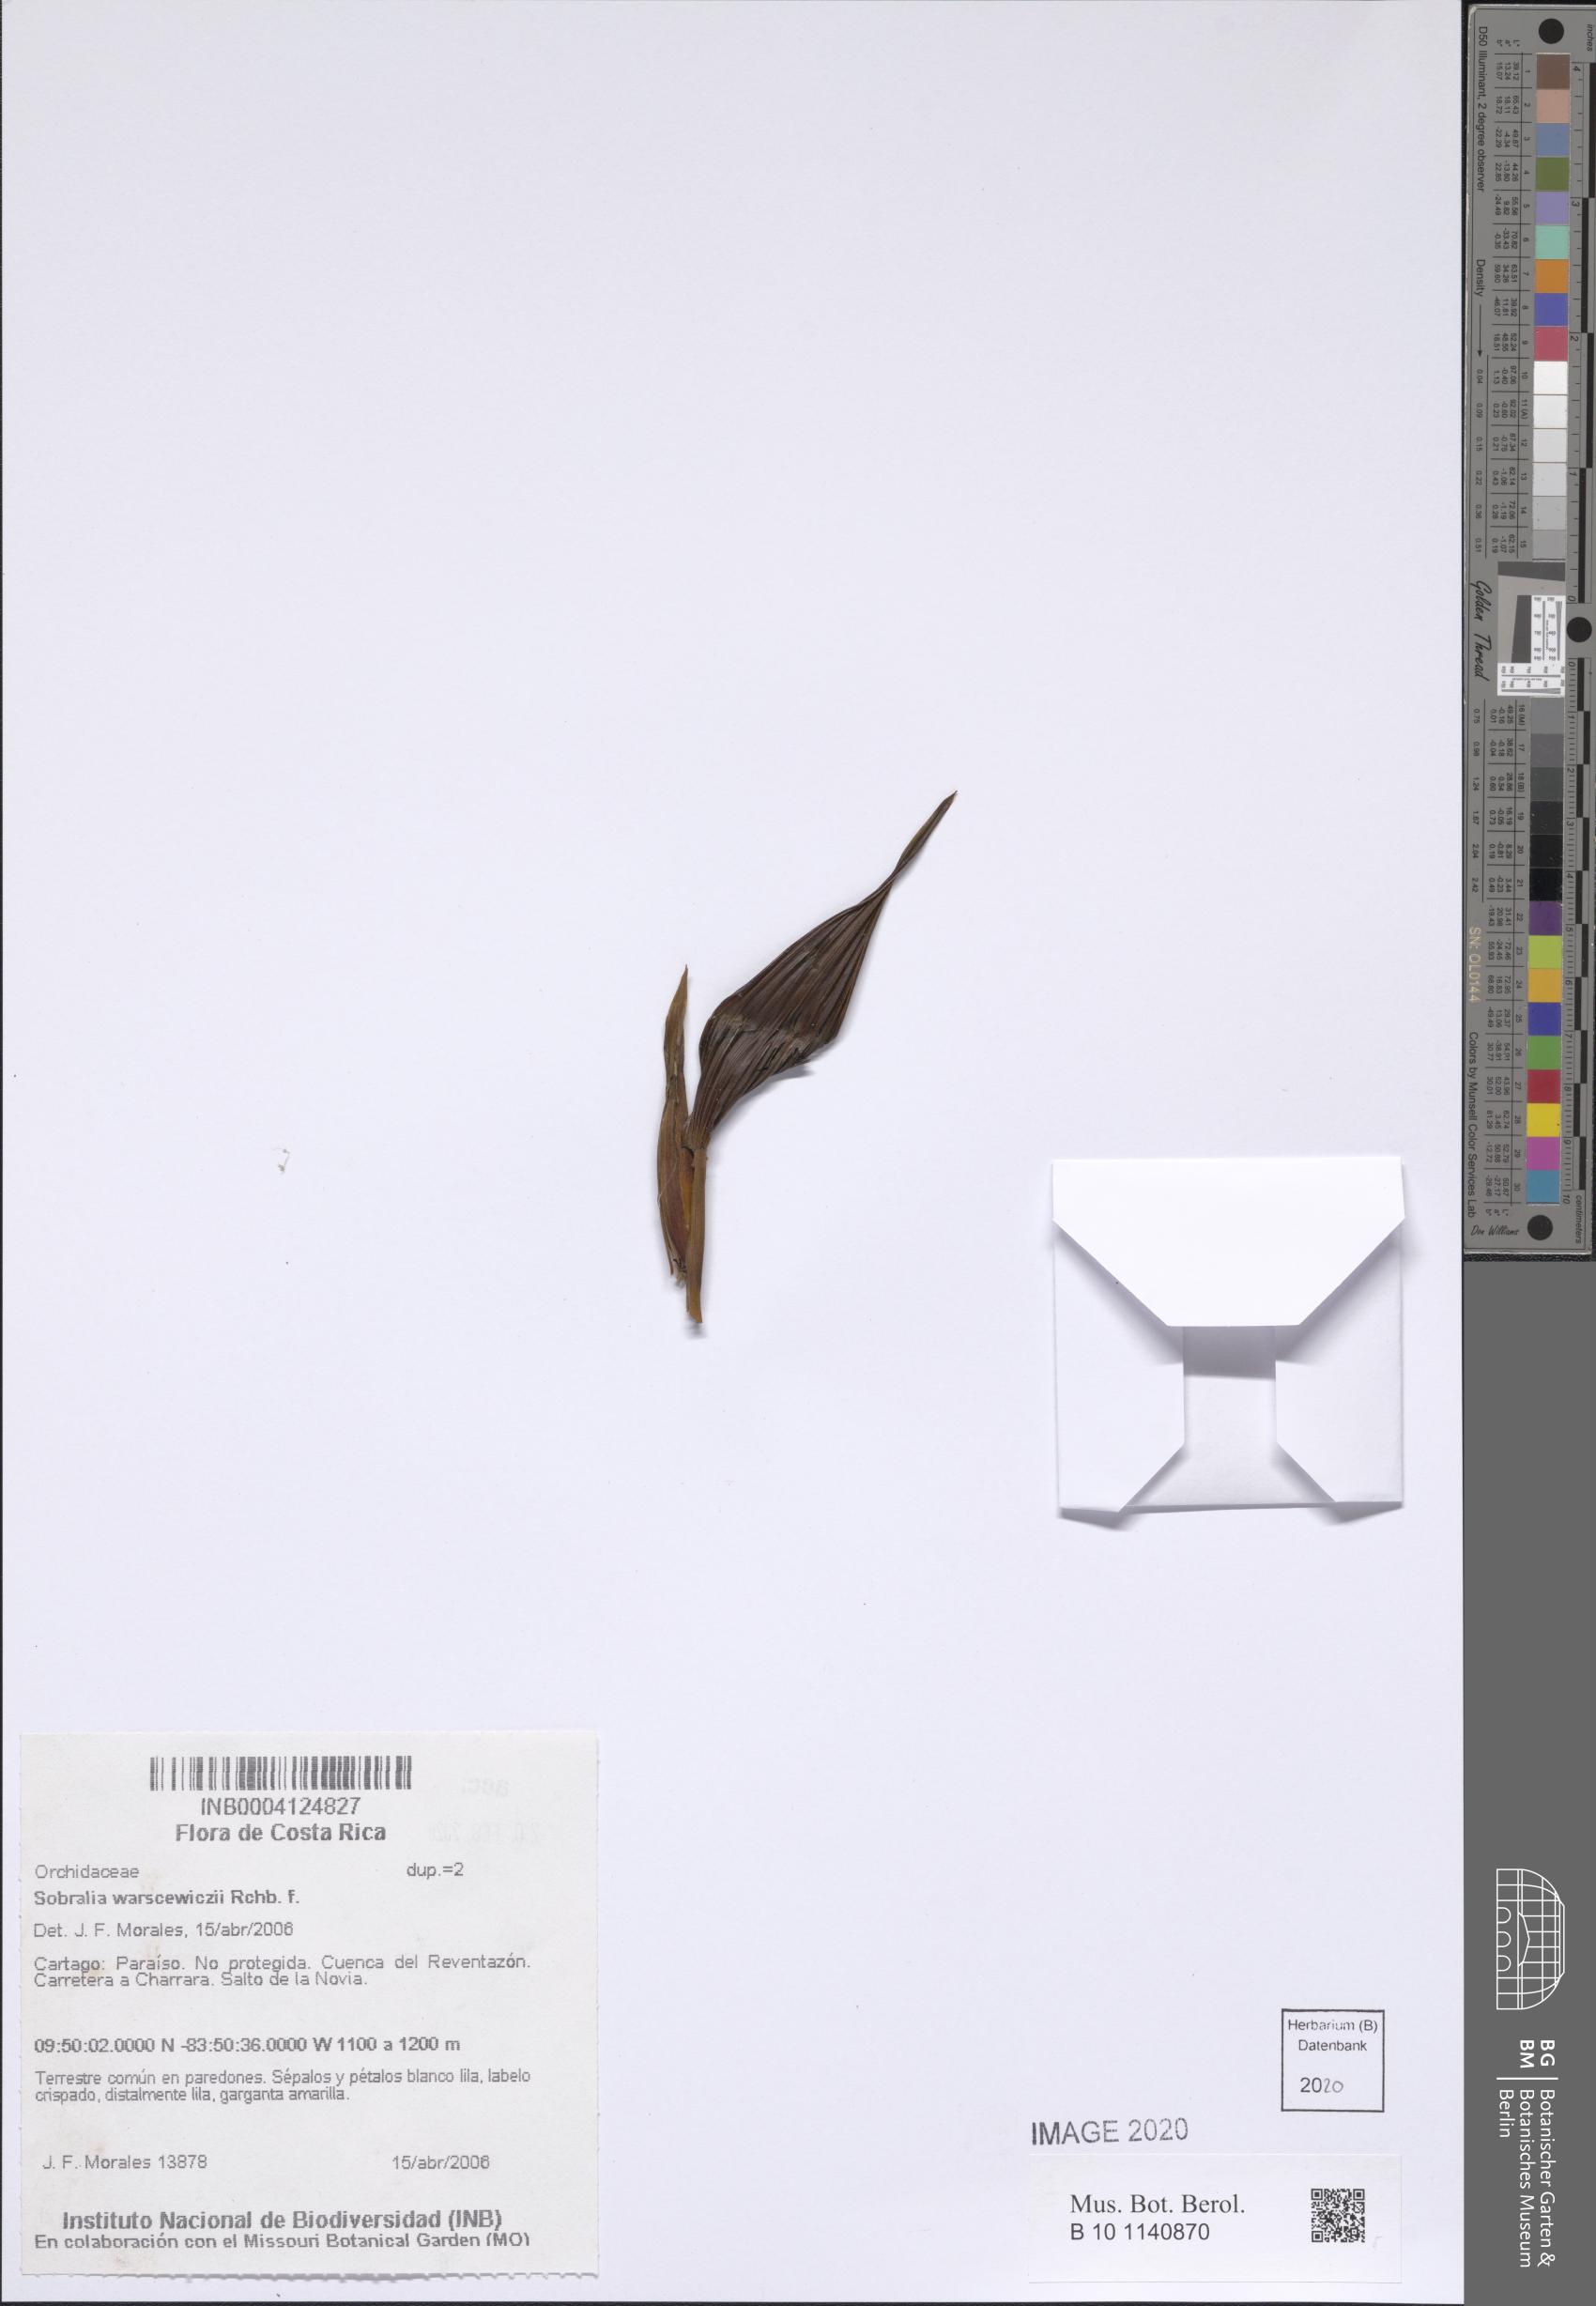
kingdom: Plantae
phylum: Tracheophyta
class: Liliopsida
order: Asparagales
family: Orchidaceae
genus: Sobralia
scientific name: Sobralia warszewiczii
